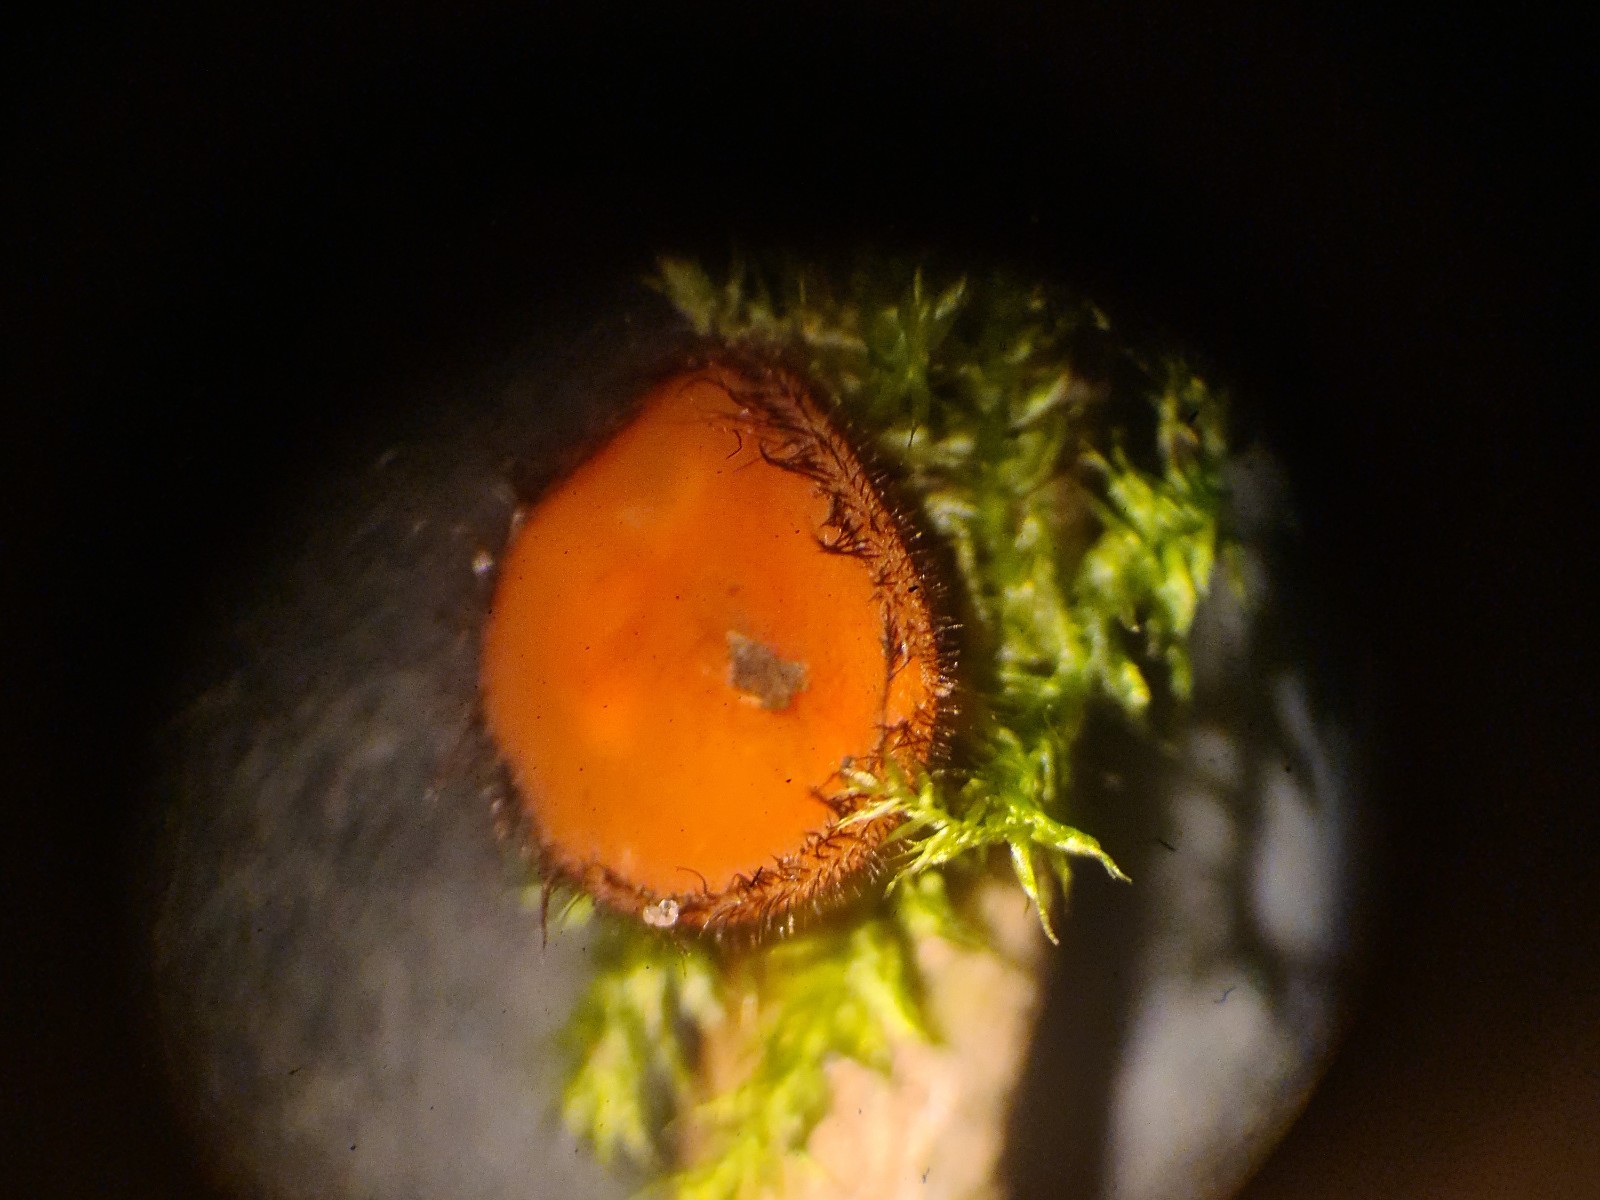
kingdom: Fungi
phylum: Ascomycota
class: Pezizomycetes
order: Pezizales
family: Pyronemataceae
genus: Scutellinia
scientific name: Scutellinia scutellata
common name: frynset skjoldbæger
